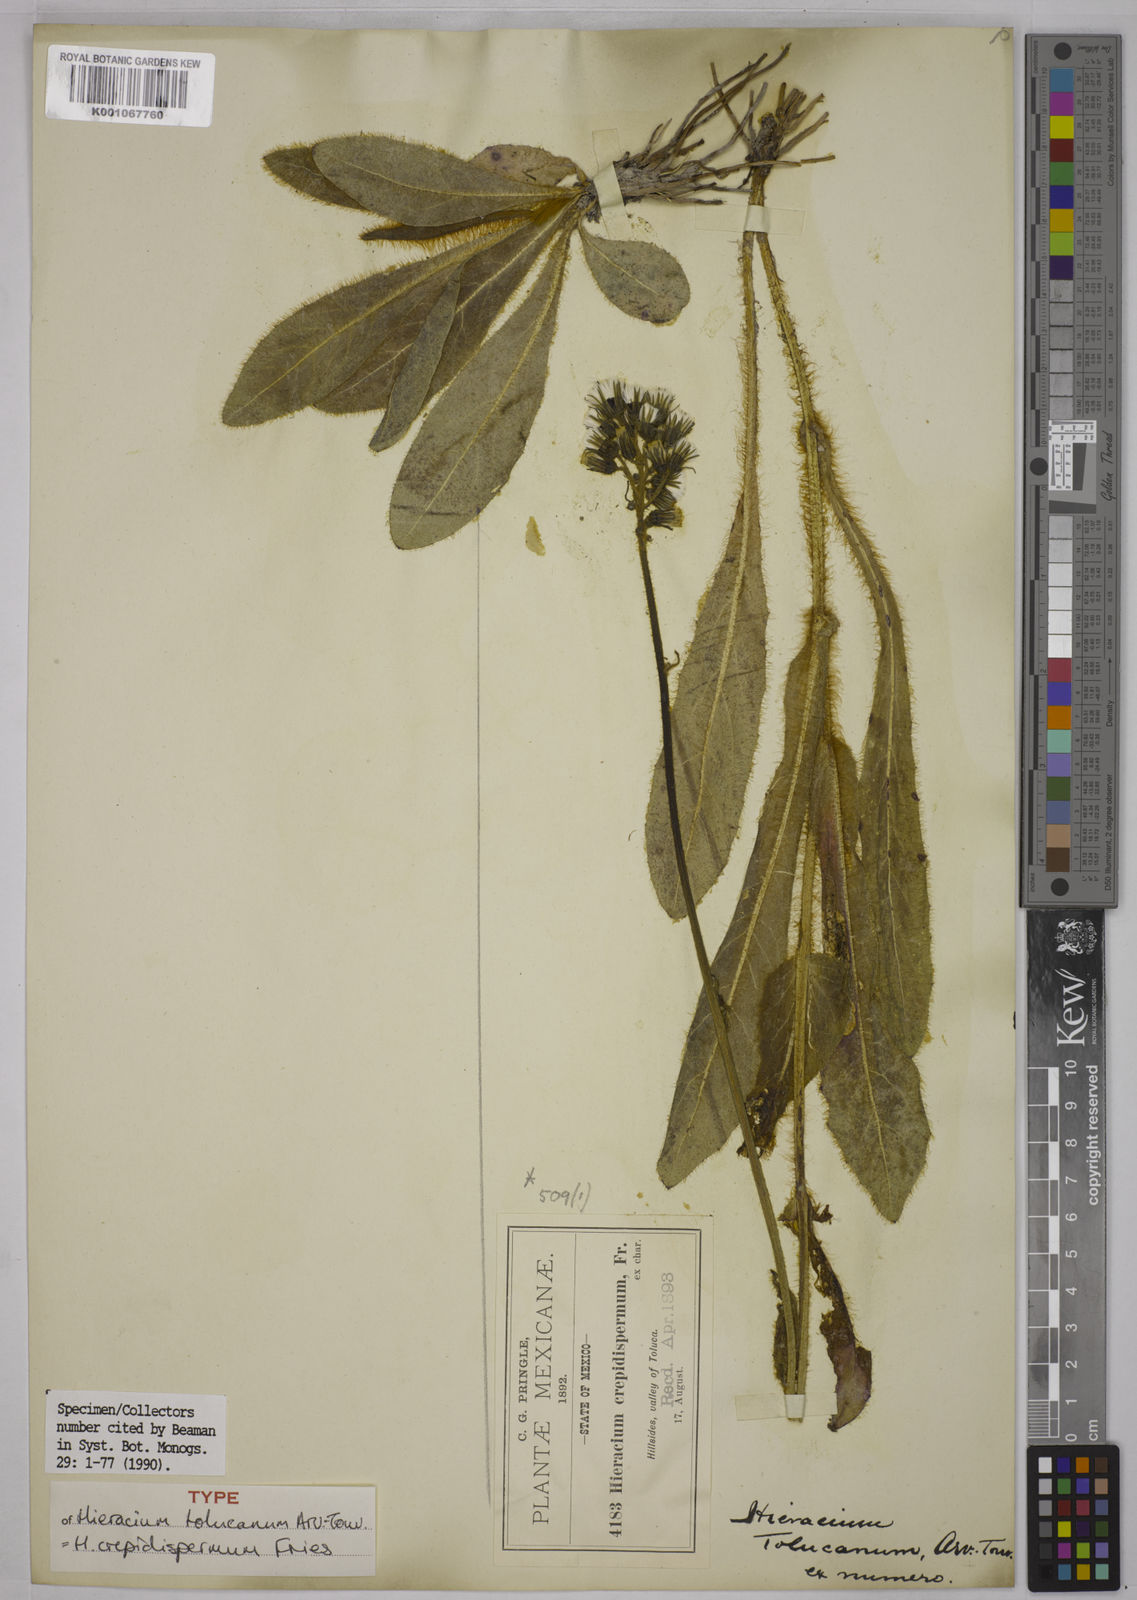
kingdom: Plantae
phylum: Tracheophyta
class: Magnoliopsida
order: Asterales
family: Asteraceae
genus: Hieracium
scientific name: Hieracium crepidispermum
